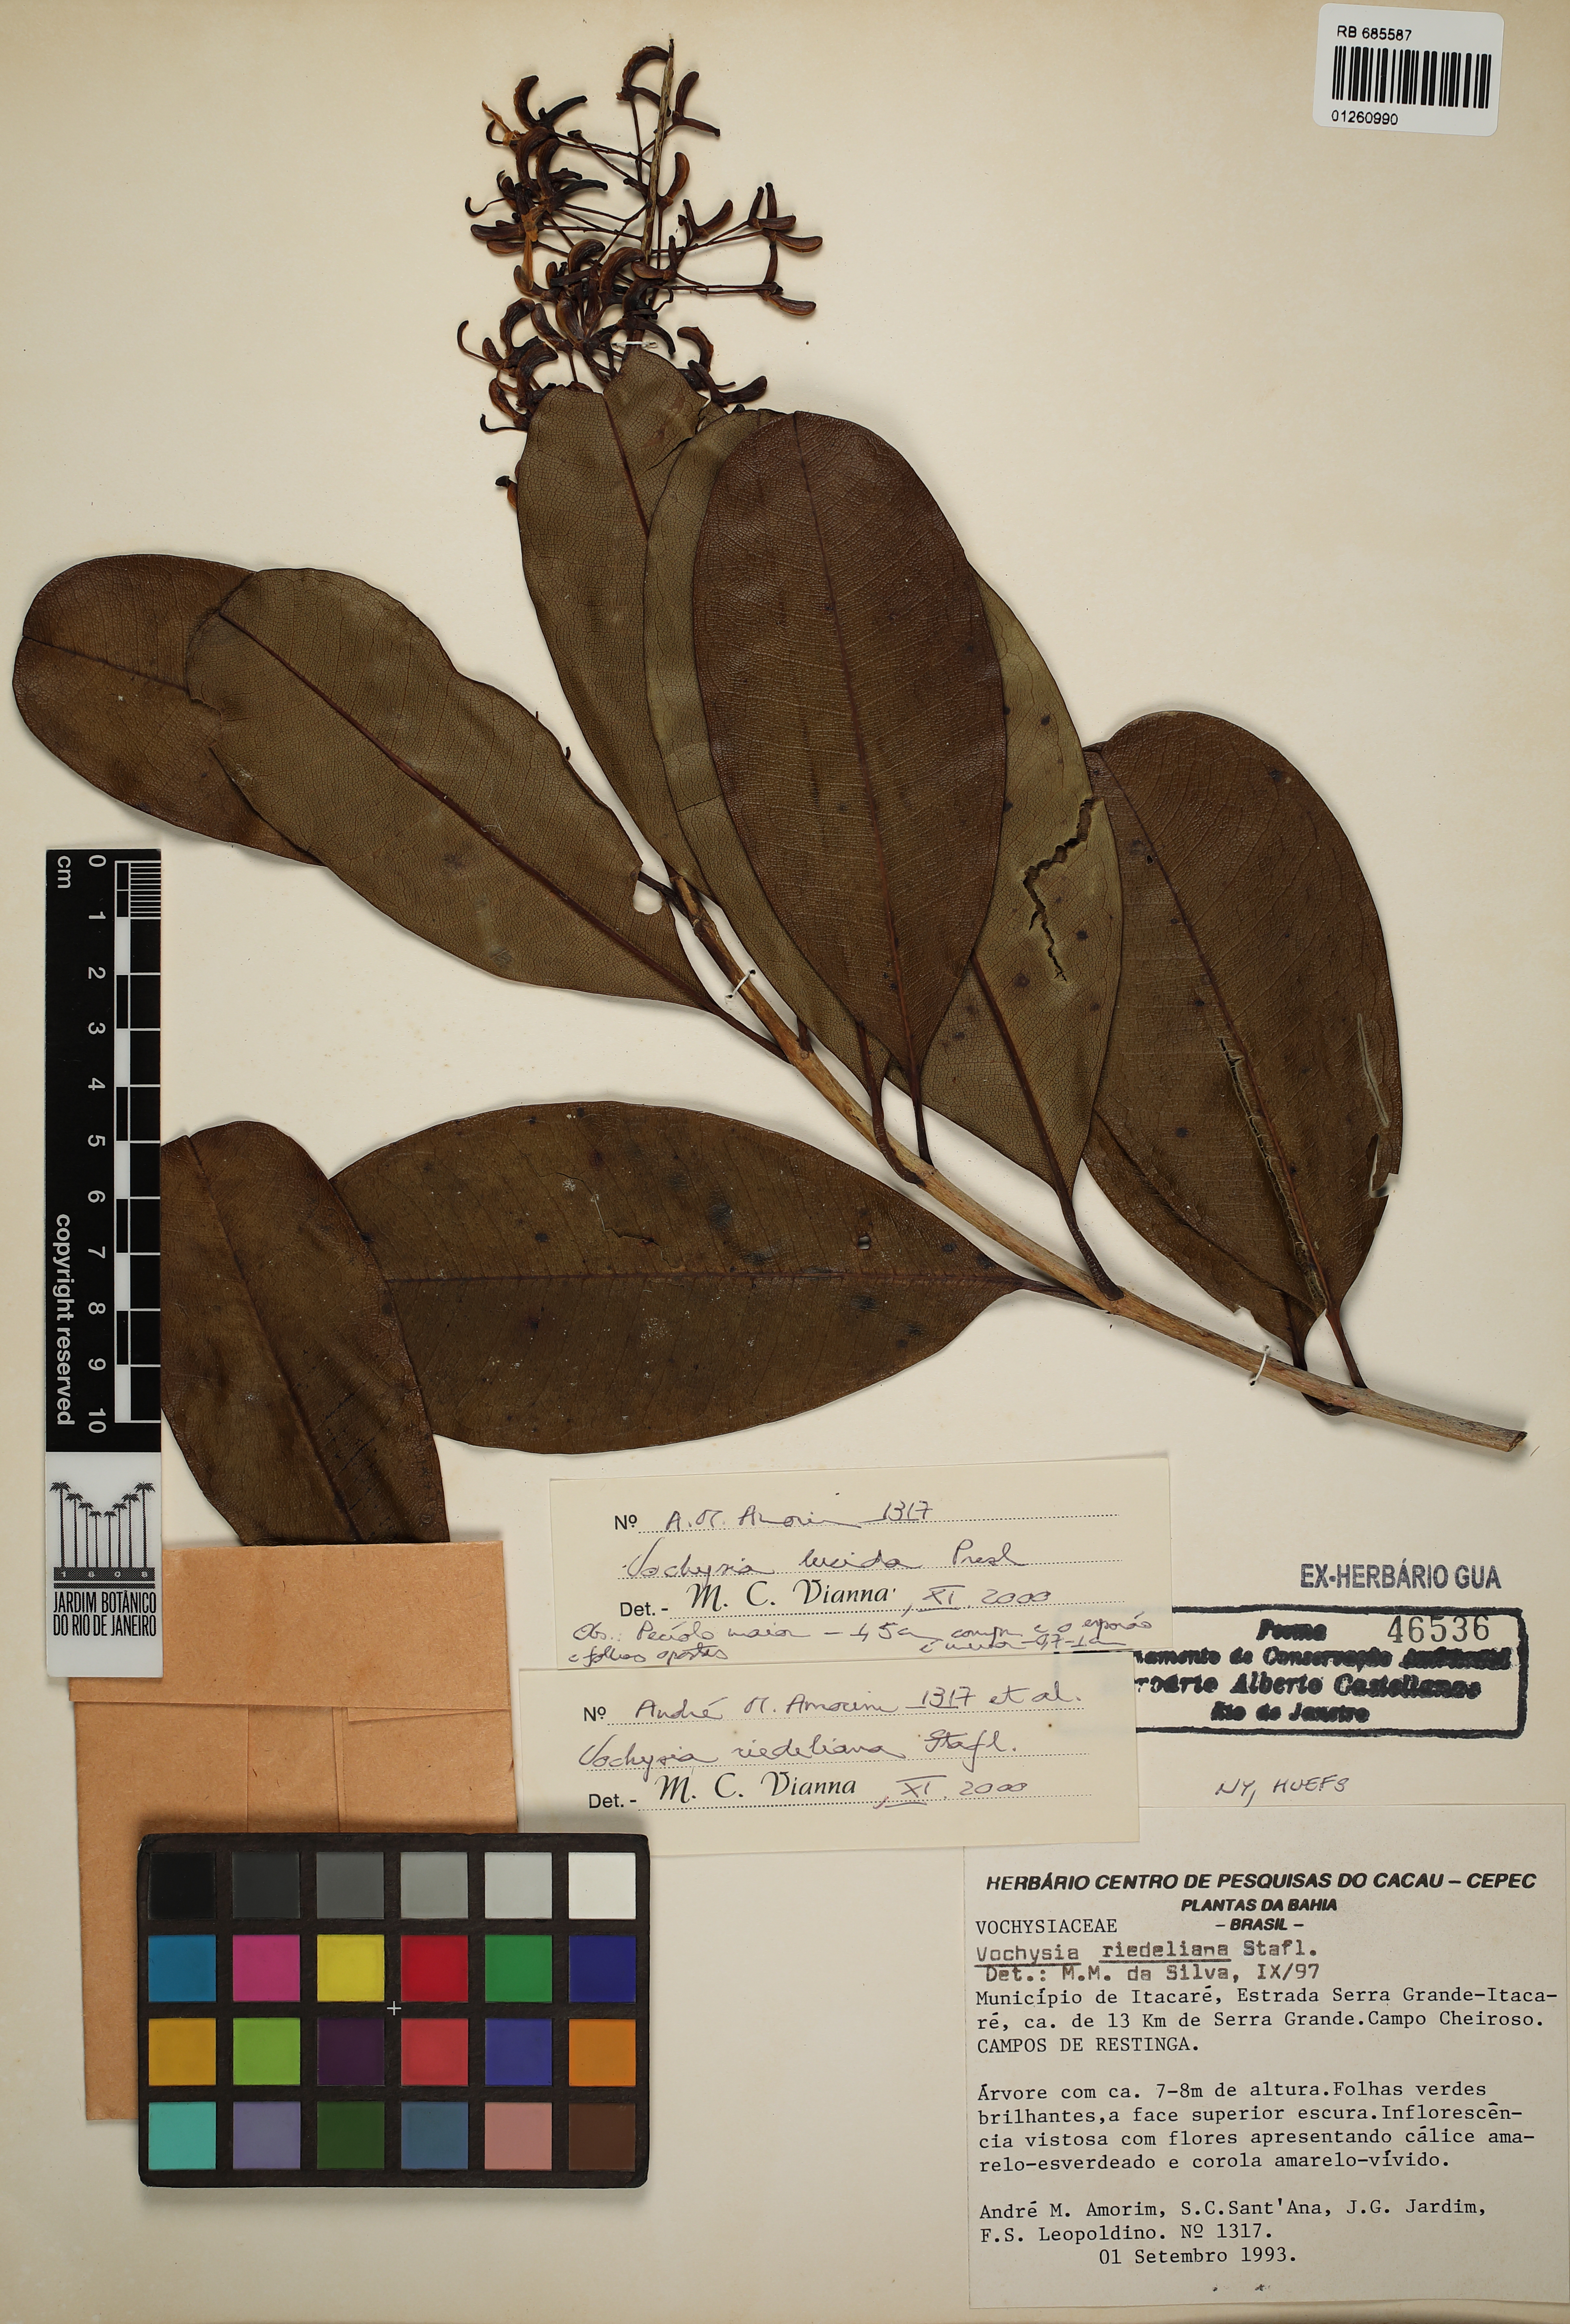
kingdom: Plantae
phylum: Tracheophyta
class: Magnoliopsida
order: Myrtales
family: Vochysiaceae
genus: Vochysia
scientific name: Vochysia lucida
